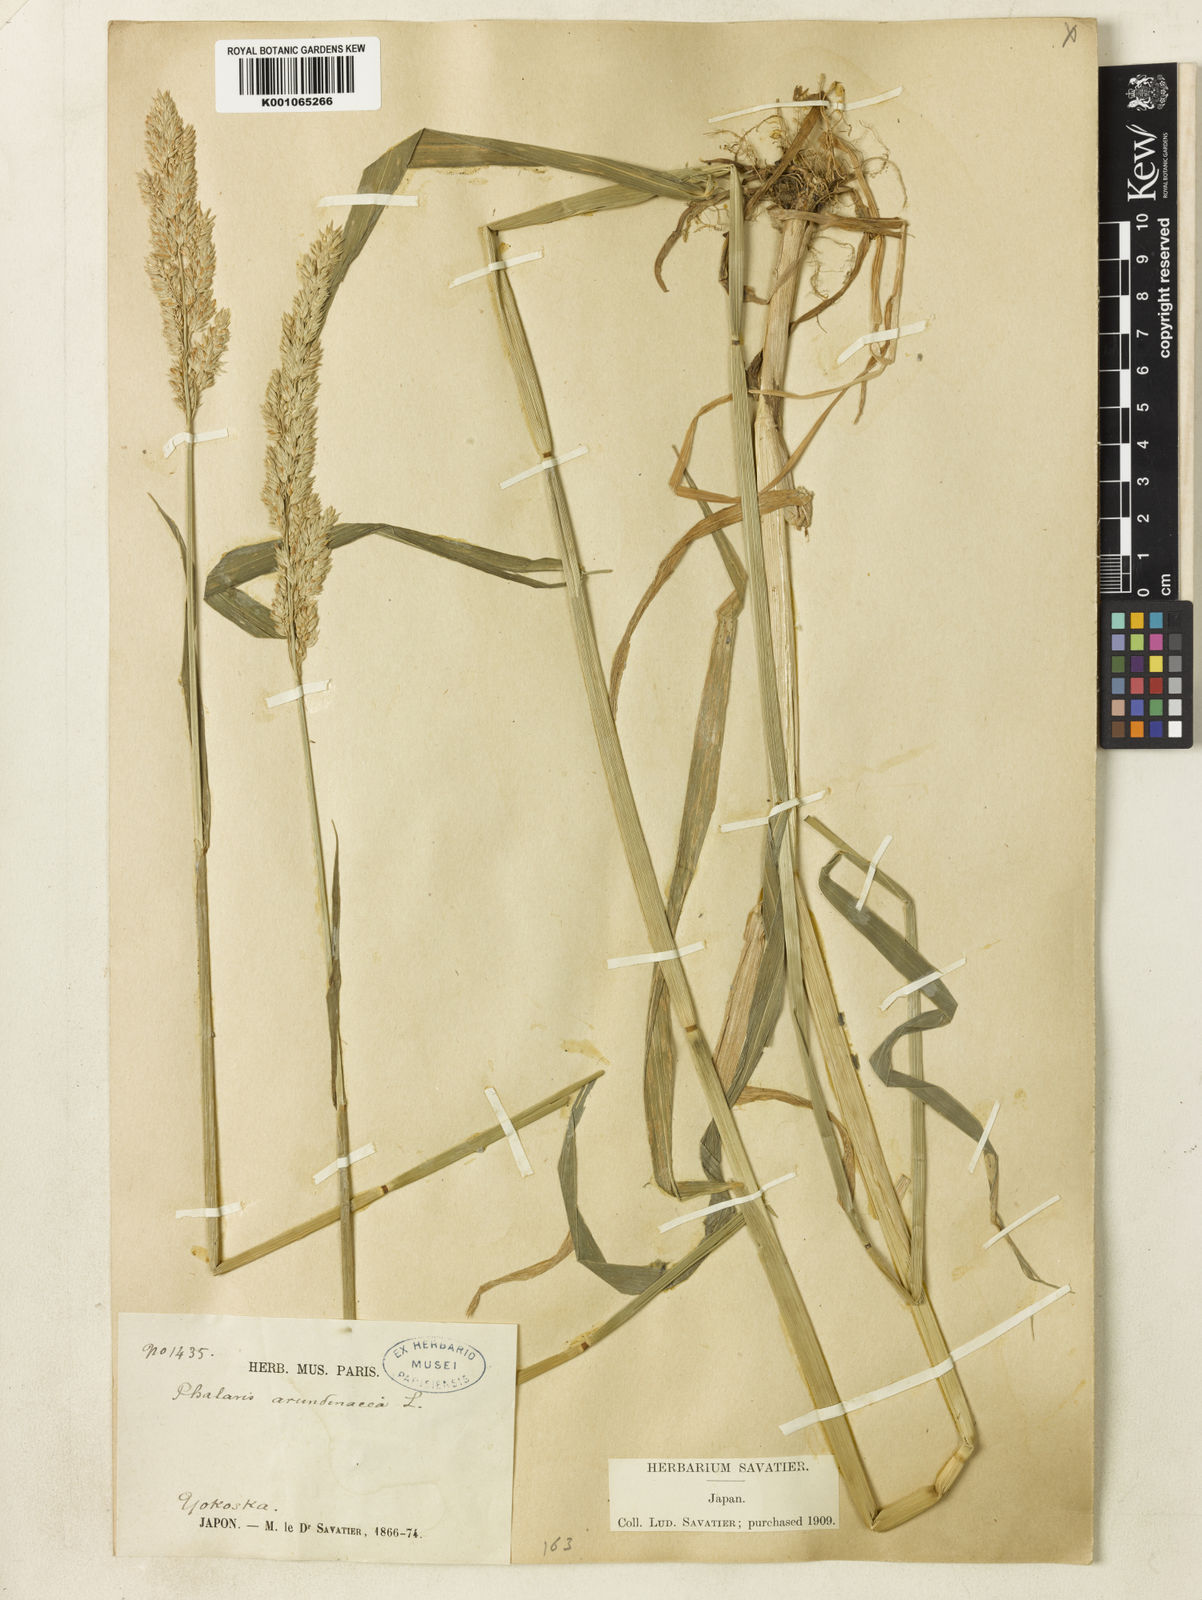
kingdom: Plantae
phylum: Tracheophyta
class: Liliopsida
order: Poales
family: Poaceae
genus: Phalaris
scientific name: Phalaris arundinacea
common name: Reed canary-grass
